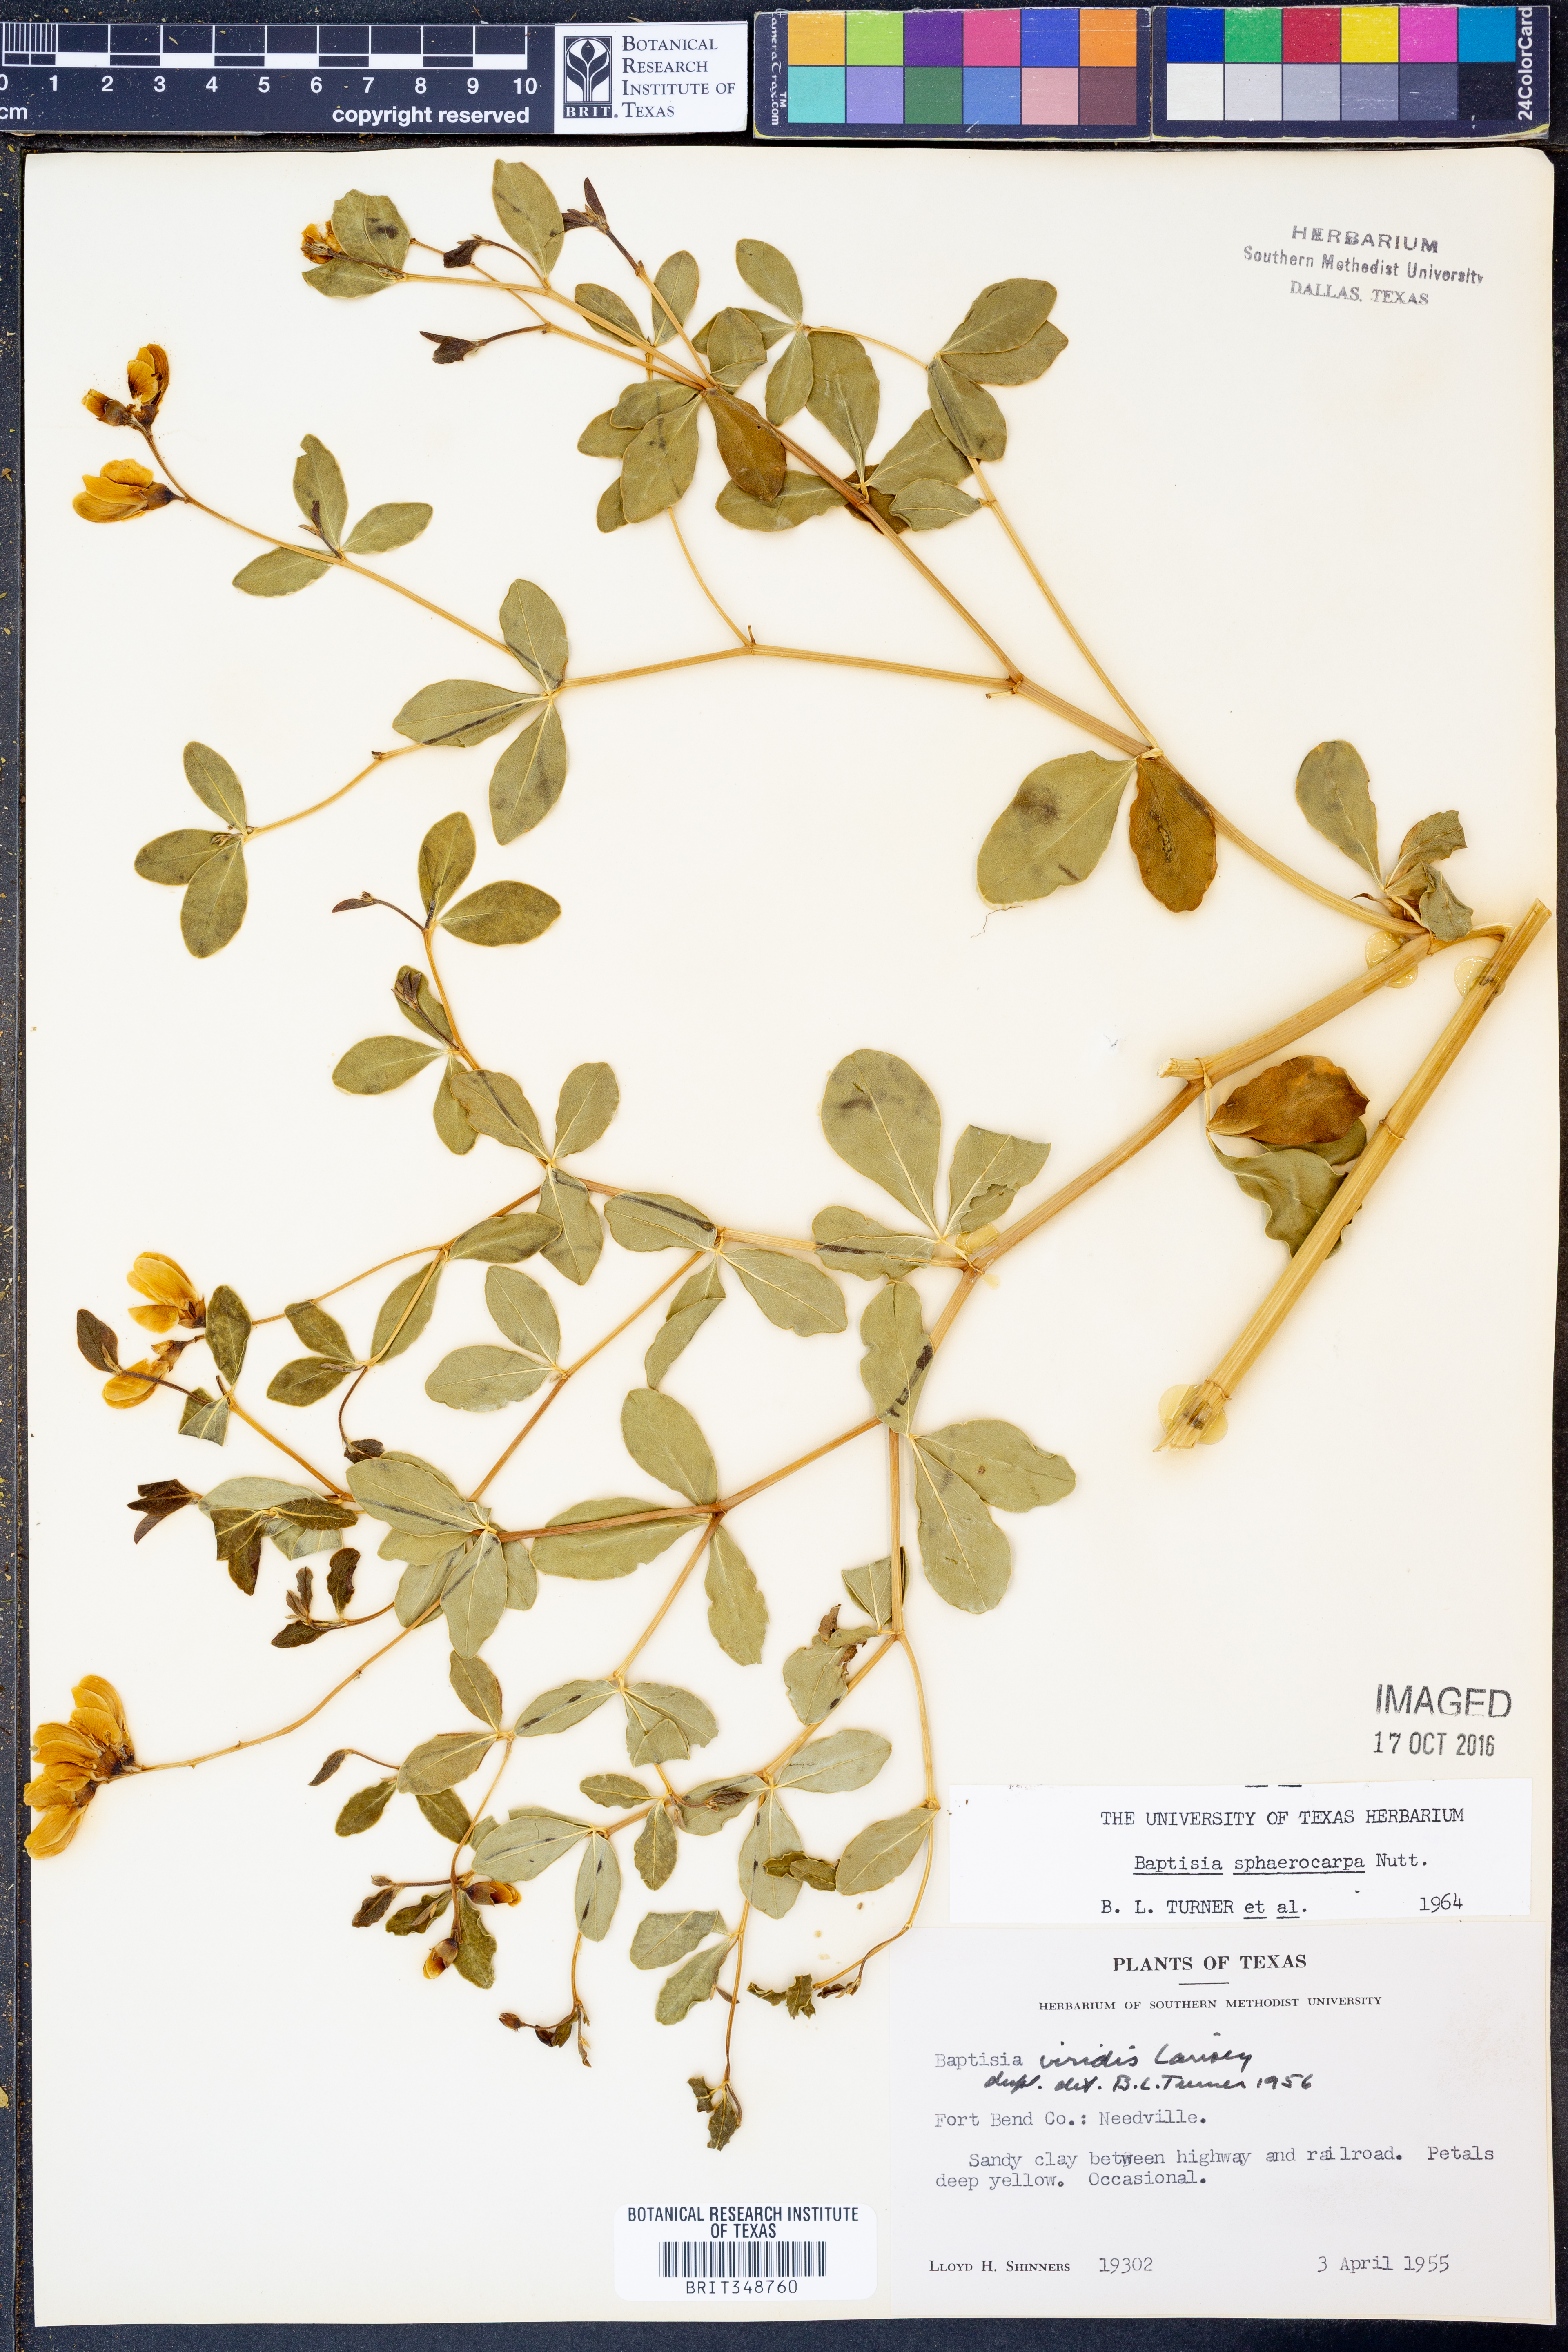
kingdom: Plantae
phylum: Tracheophyta
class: Magnoliopsida
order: Fabales
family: Fabaceae
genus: Baptisia
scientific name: Baptisia sphaerocarpa
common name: Round wild indigo
